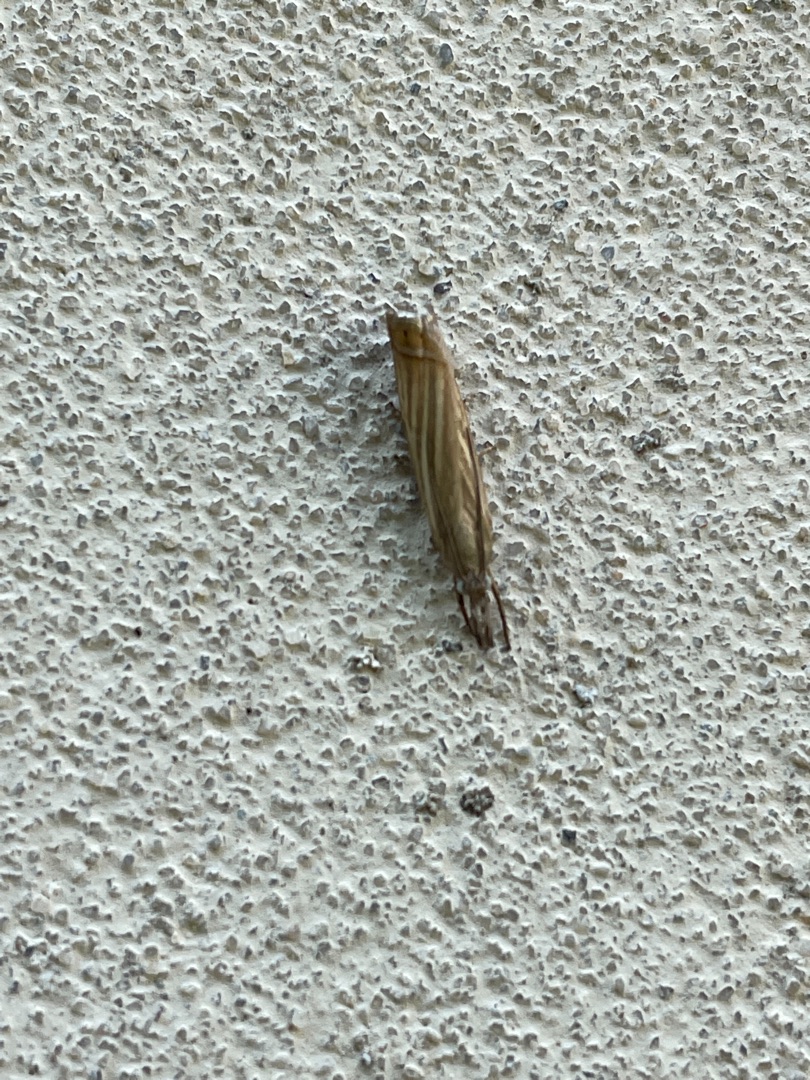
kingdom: Animalia
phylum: Arthropoda
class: Insecta
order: Lepidoptera
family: Crambidae
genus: Chrysoteuchia
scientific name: Chrysoteuchia culmella
